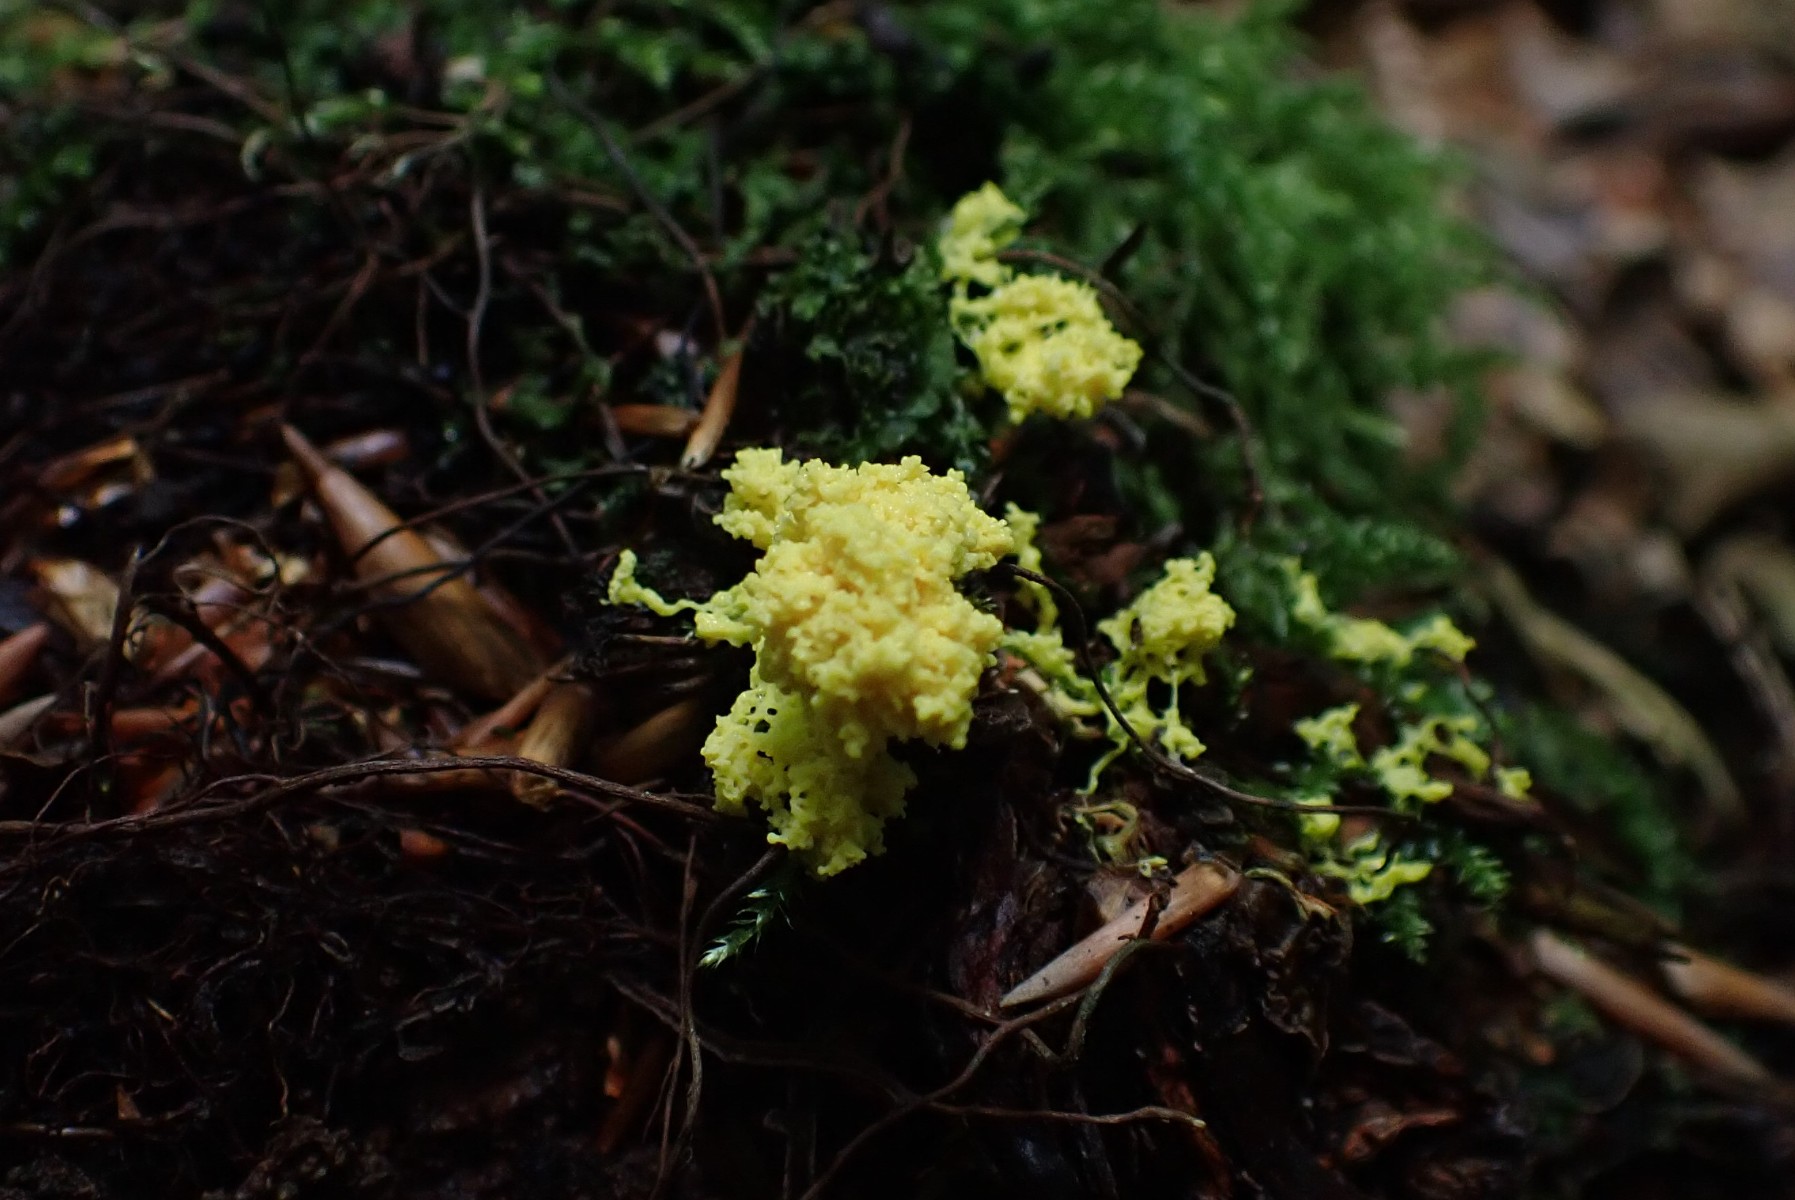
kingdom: Protozoa
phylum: Mycetozoa
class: Myxomycetes
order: Physarales
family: Physaraceae
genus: Fuligo
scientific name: Fuligo septica
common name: gul troldsmør
